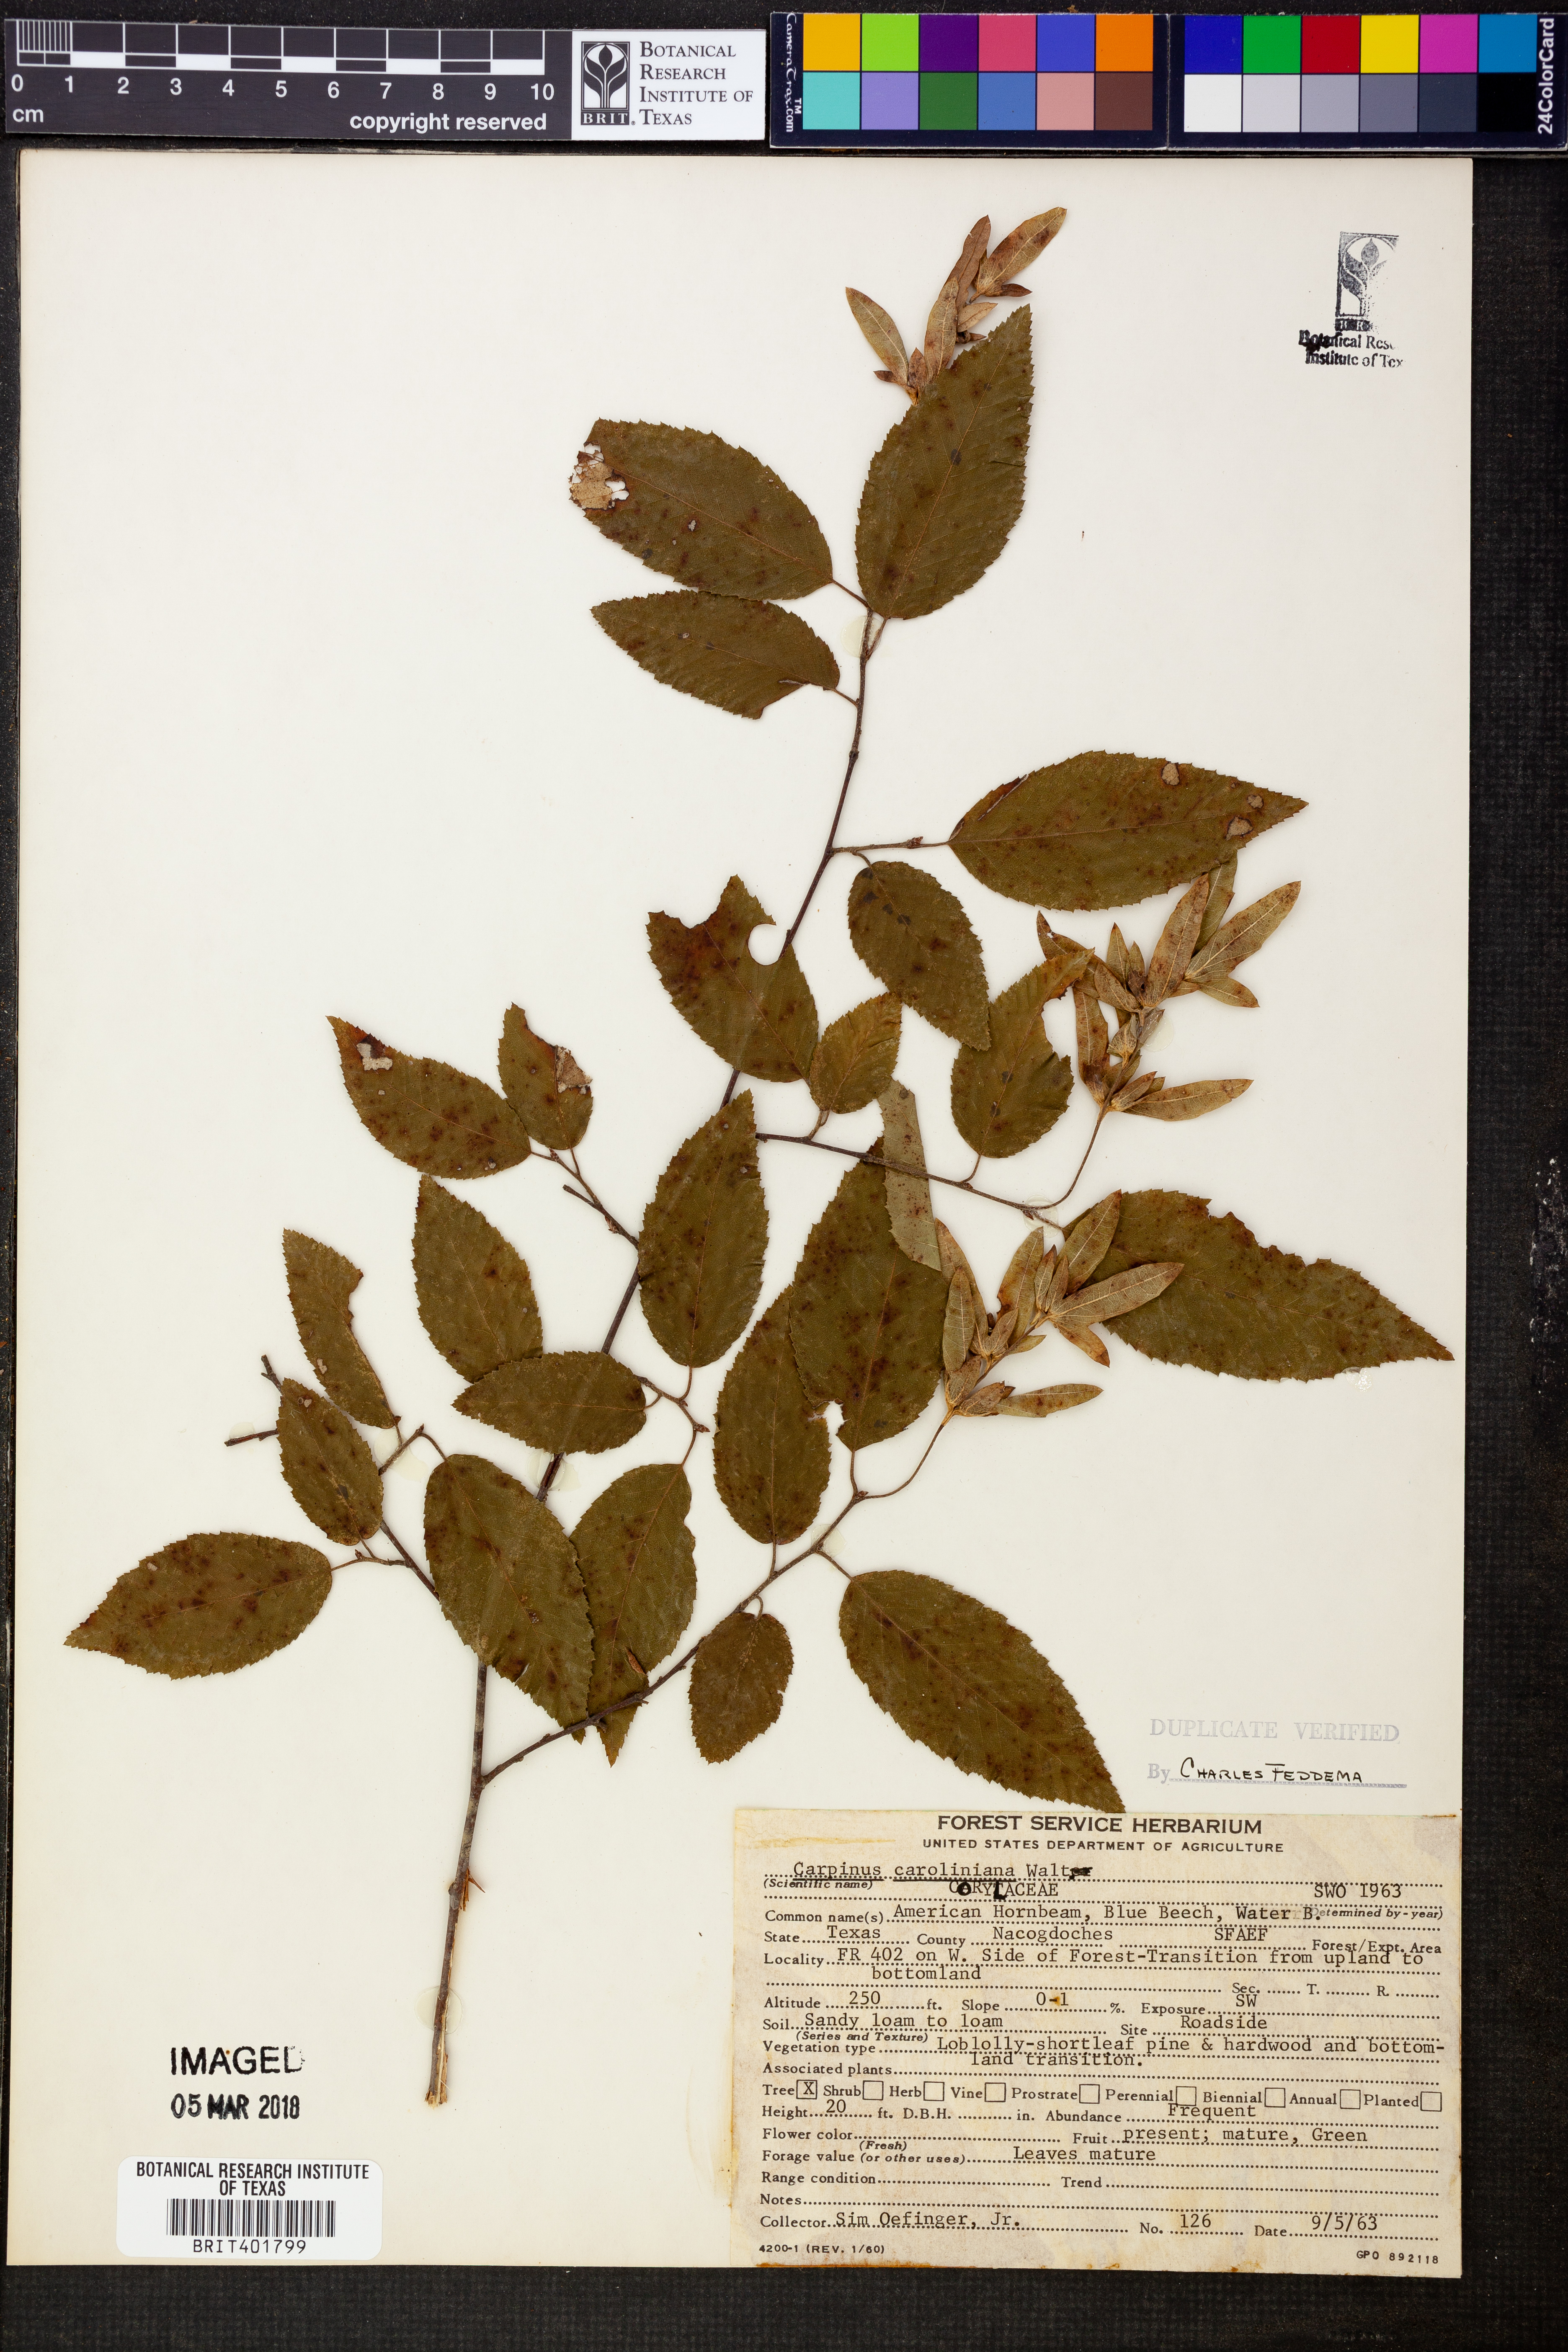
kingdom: Plantae
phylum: Tracheophyta
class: Magnoliopsida
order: Fagales
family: Betulaceae
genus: Carpinus
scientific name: Carpinus caroliniana
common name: American hornbeam
